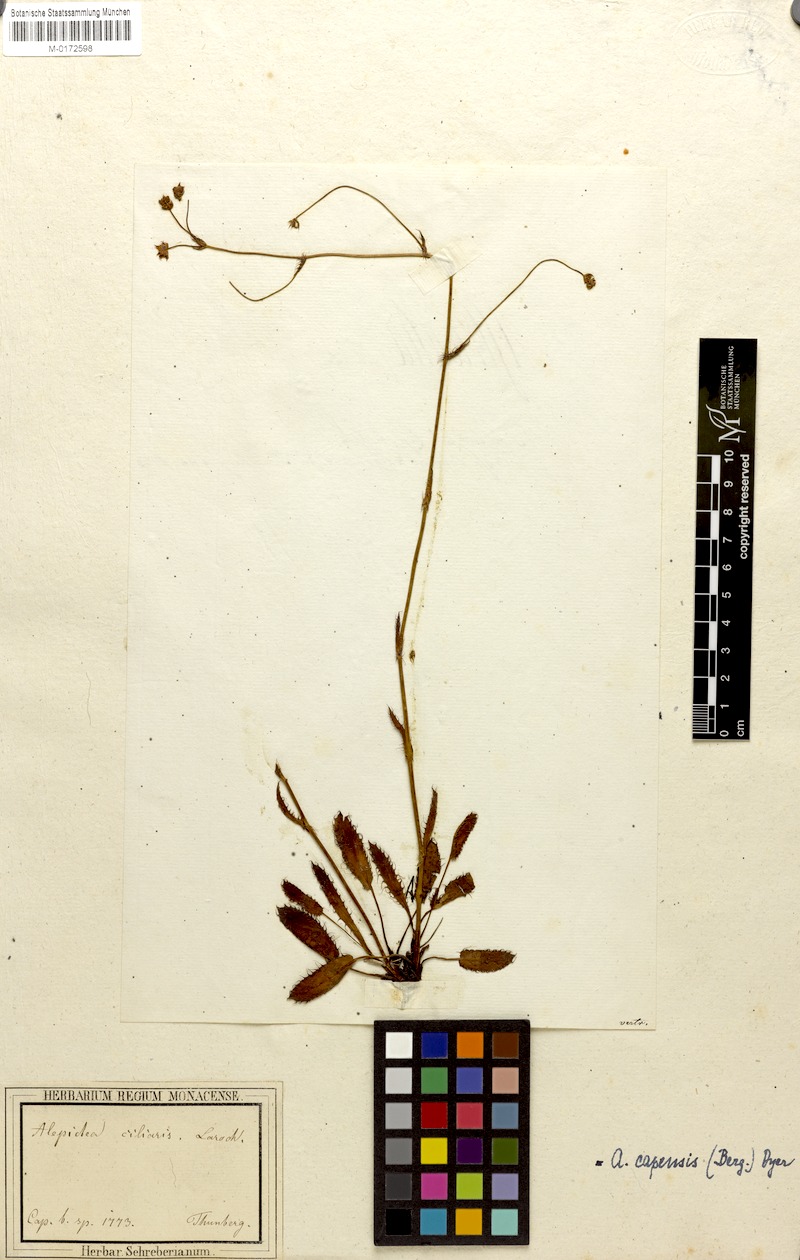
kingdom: Plantae
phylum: Tracheophyta
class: Magnoliopsida
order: Apiales
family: Apiaceae
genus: Alepidea
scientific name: Alepidea capensis
